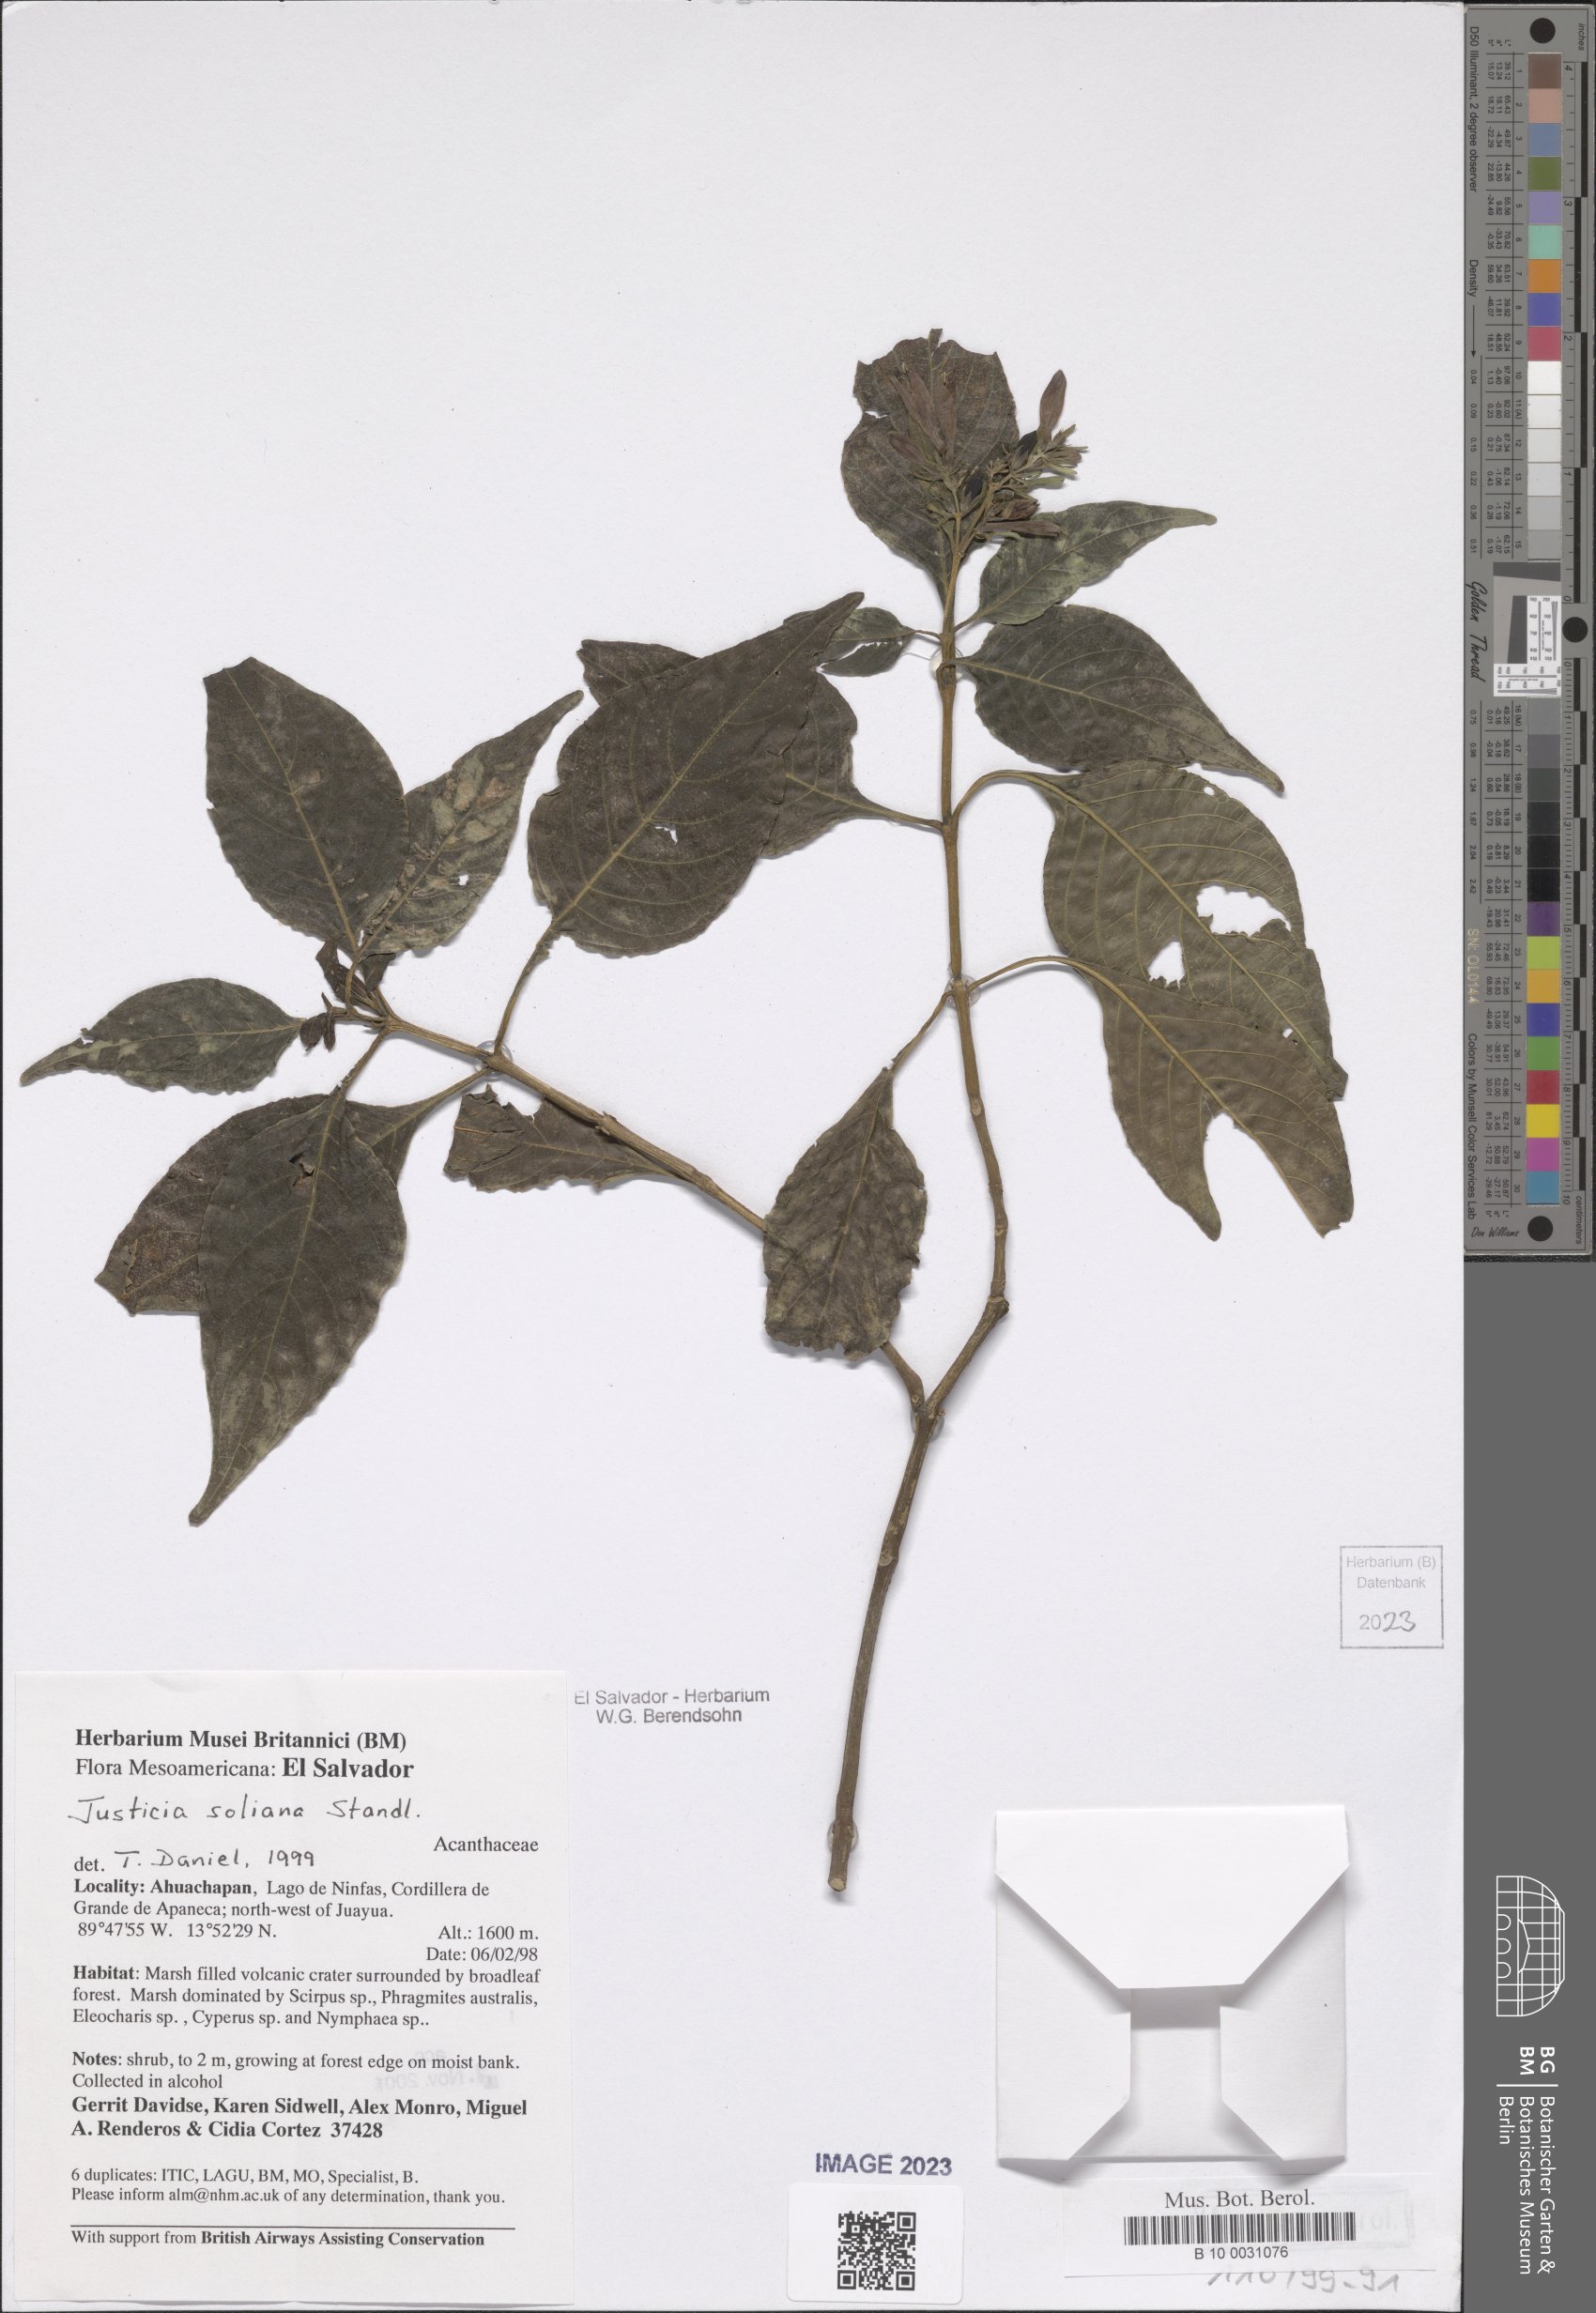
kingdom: Plantae
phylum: Tracheophyta
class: Magnoliopsida
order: Lamiales
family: Acanthaceae
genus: Justicia
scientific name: Justicia soliana
